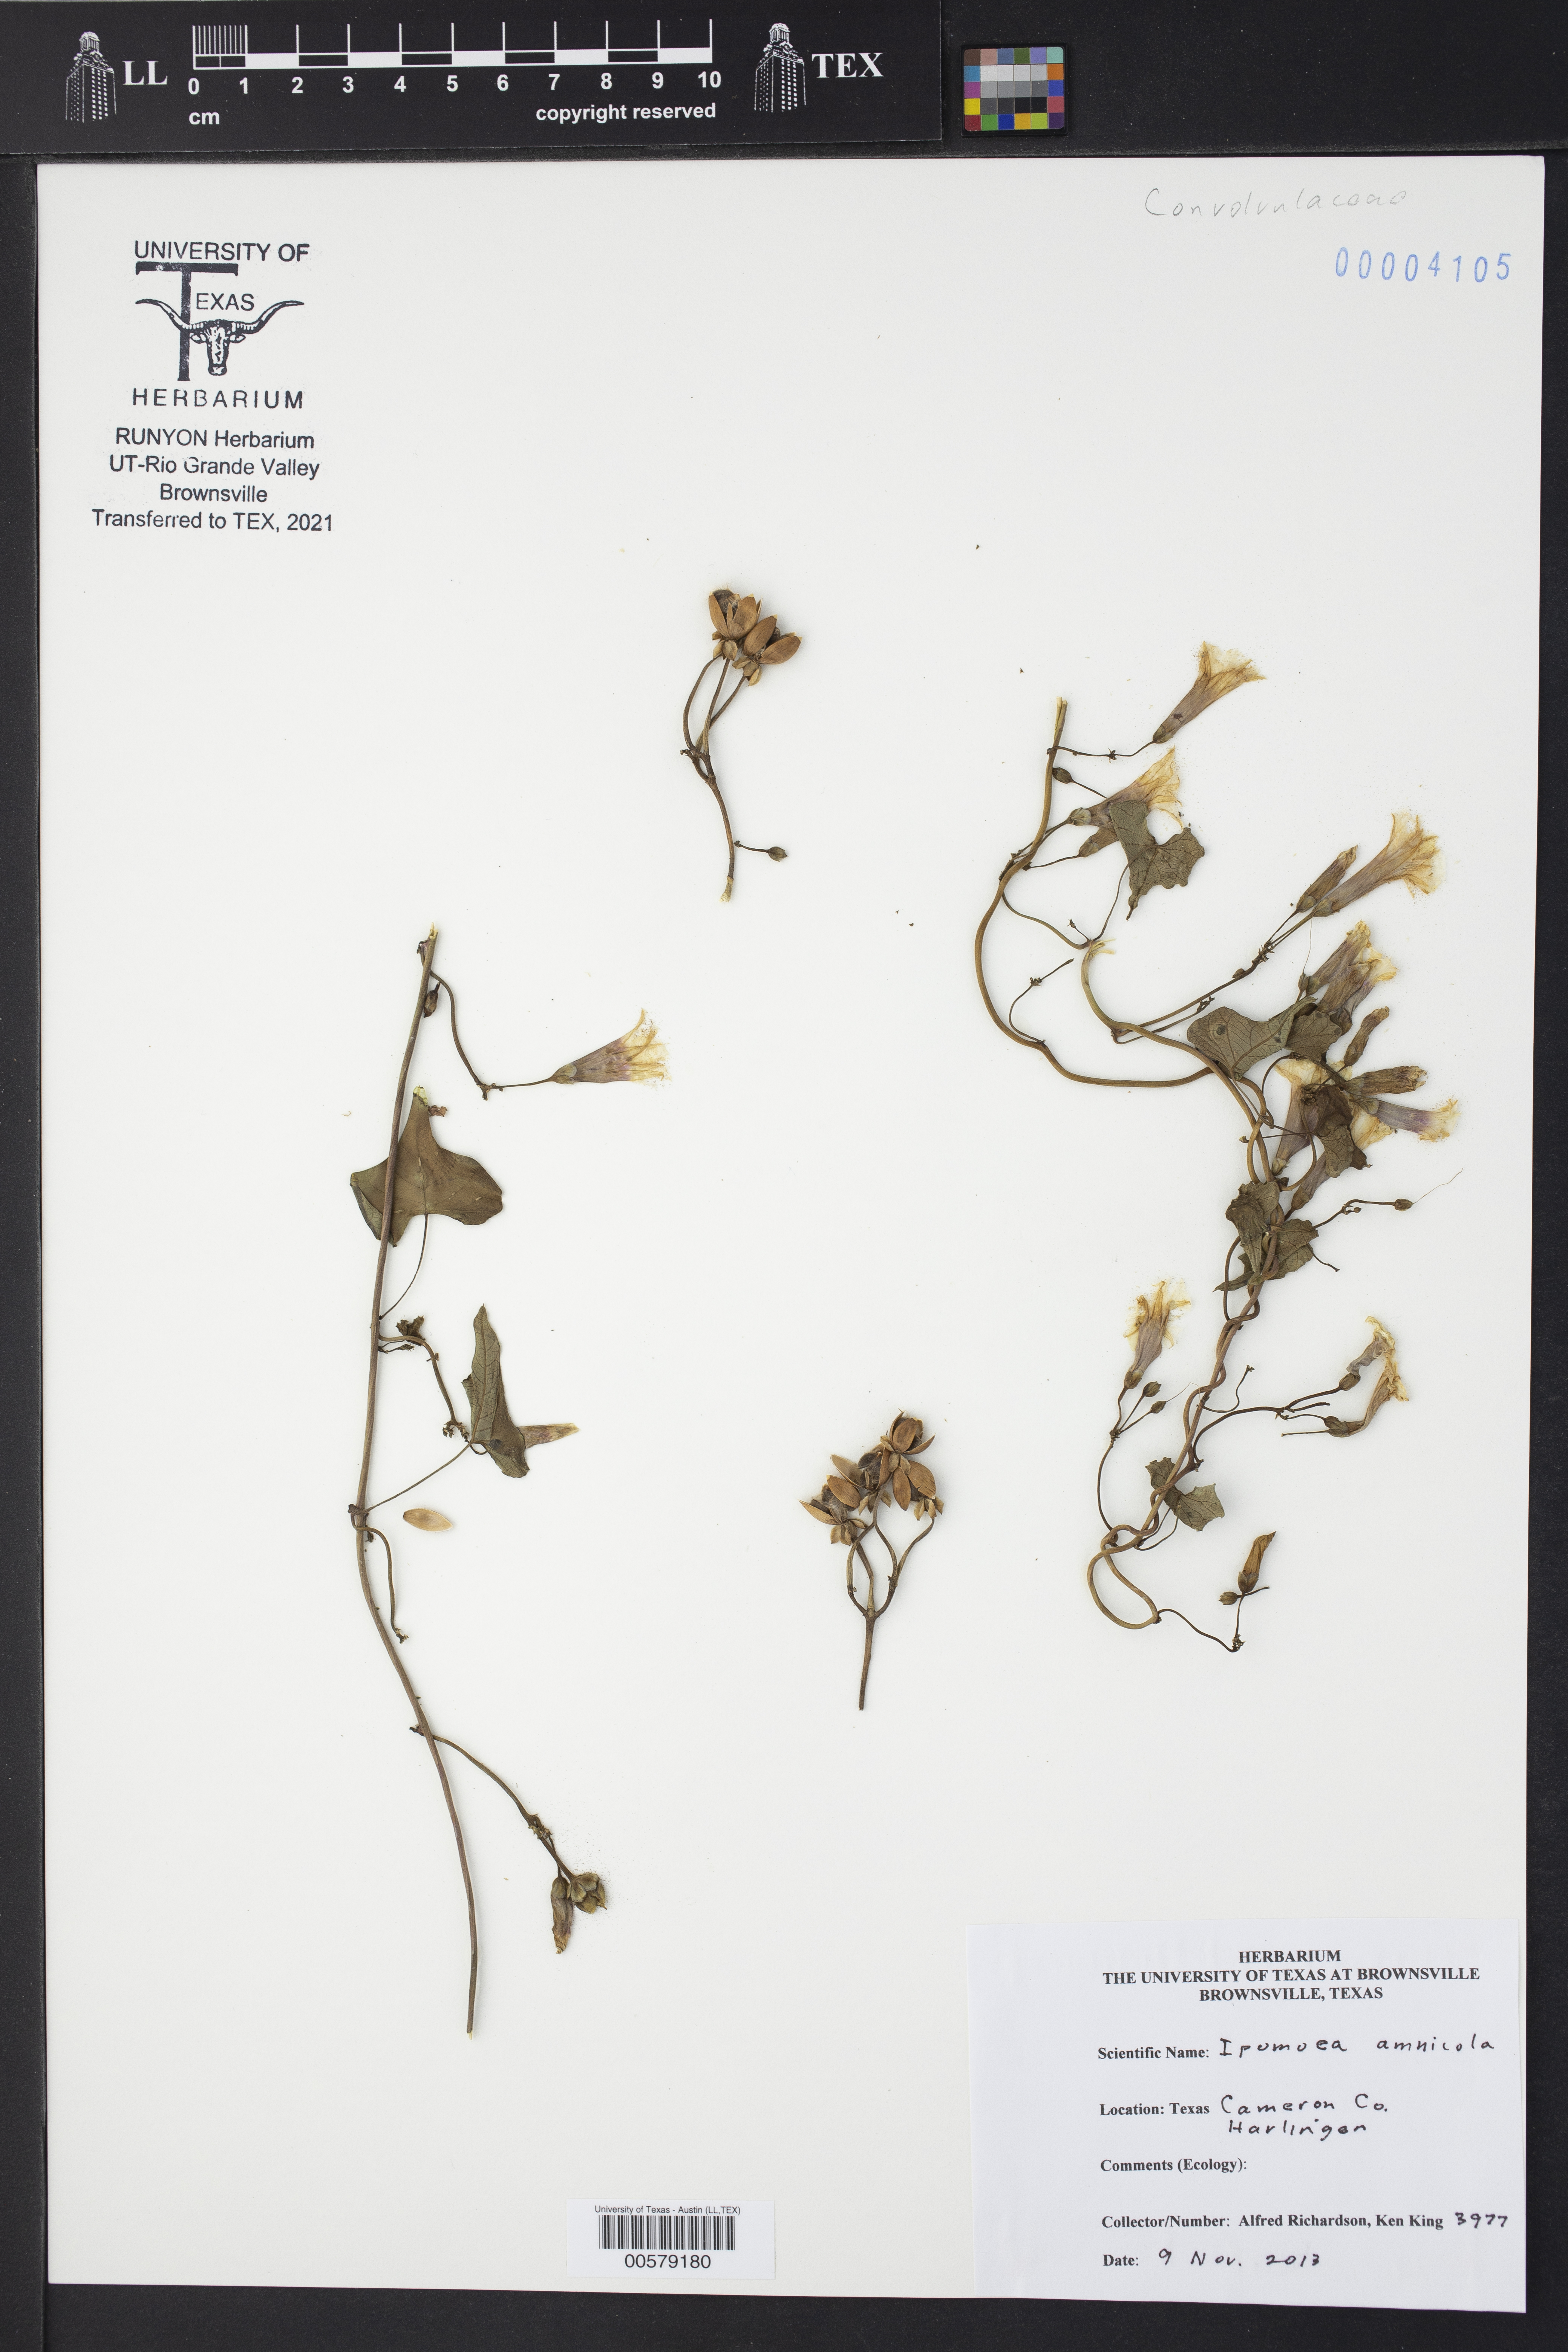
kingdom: Plantae
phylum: Tracheophyta
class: Magnoliopsida
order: Solanales
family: Convolvulaceae
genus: Ipomoea
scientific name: Ipomoea amnicola
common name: Redcenter morning-glory
